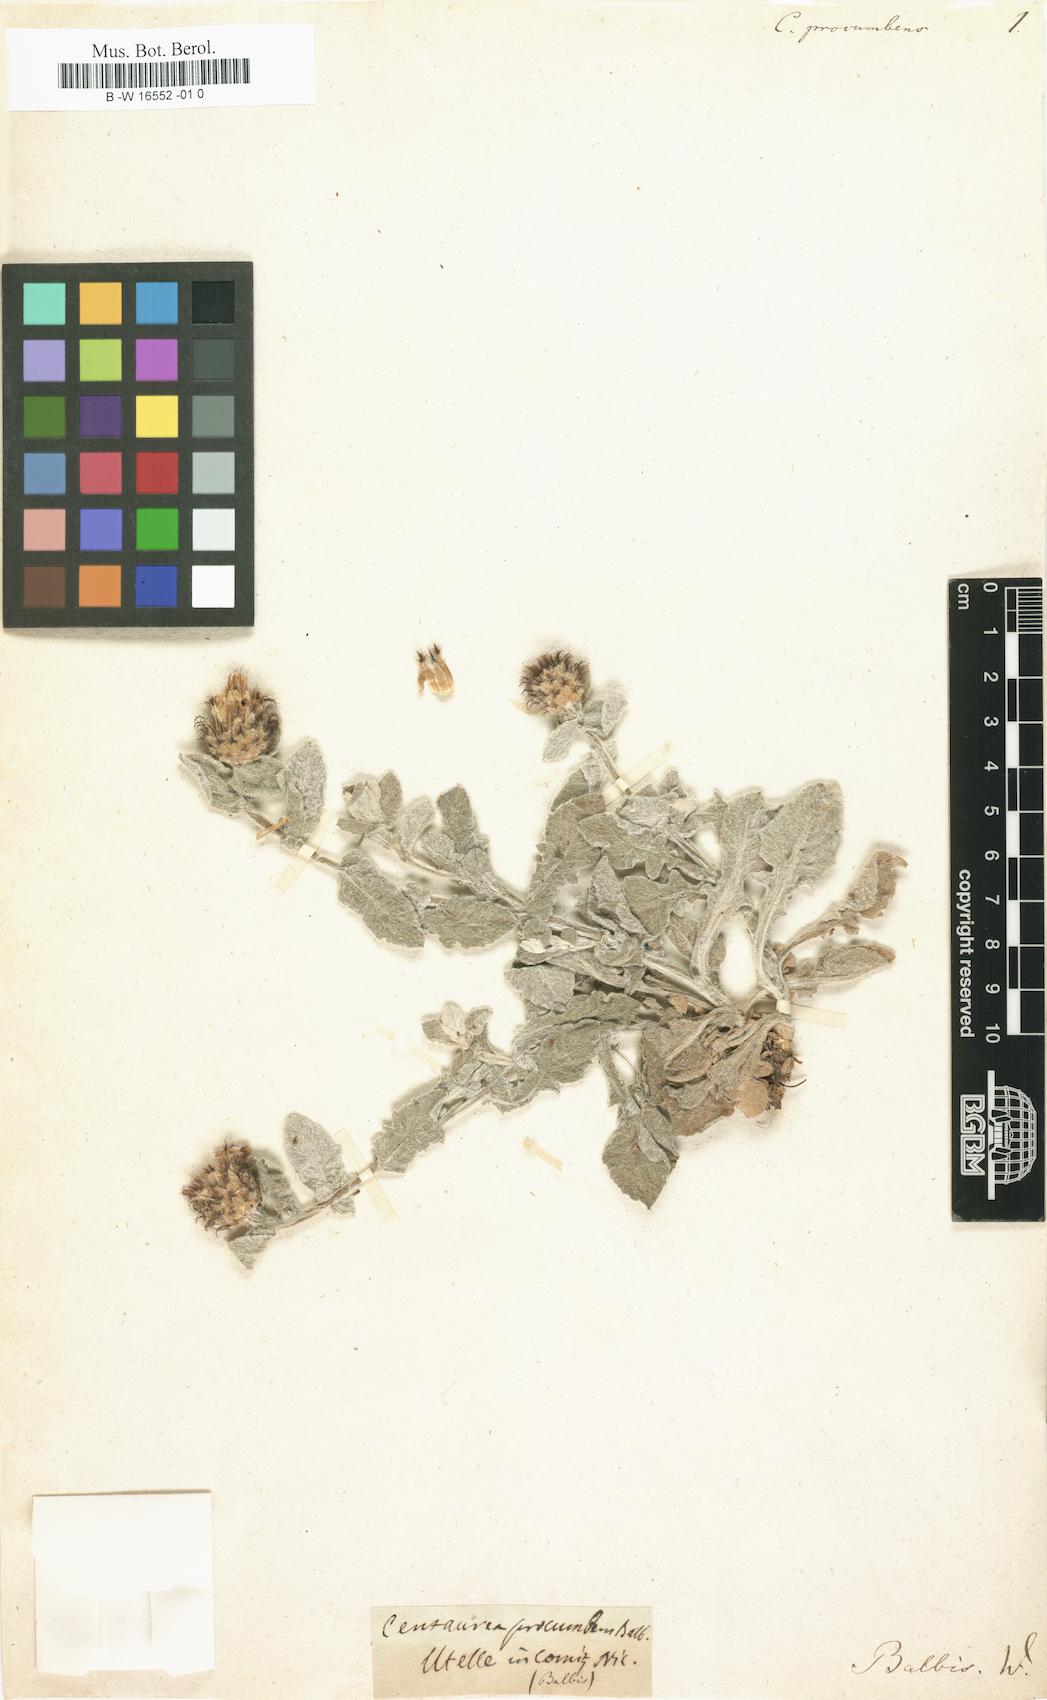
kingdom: Plantae
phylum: Tracheophyta
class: Magnoliopsida
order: Asterales
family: Asteraceae
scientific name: Asteraceae
